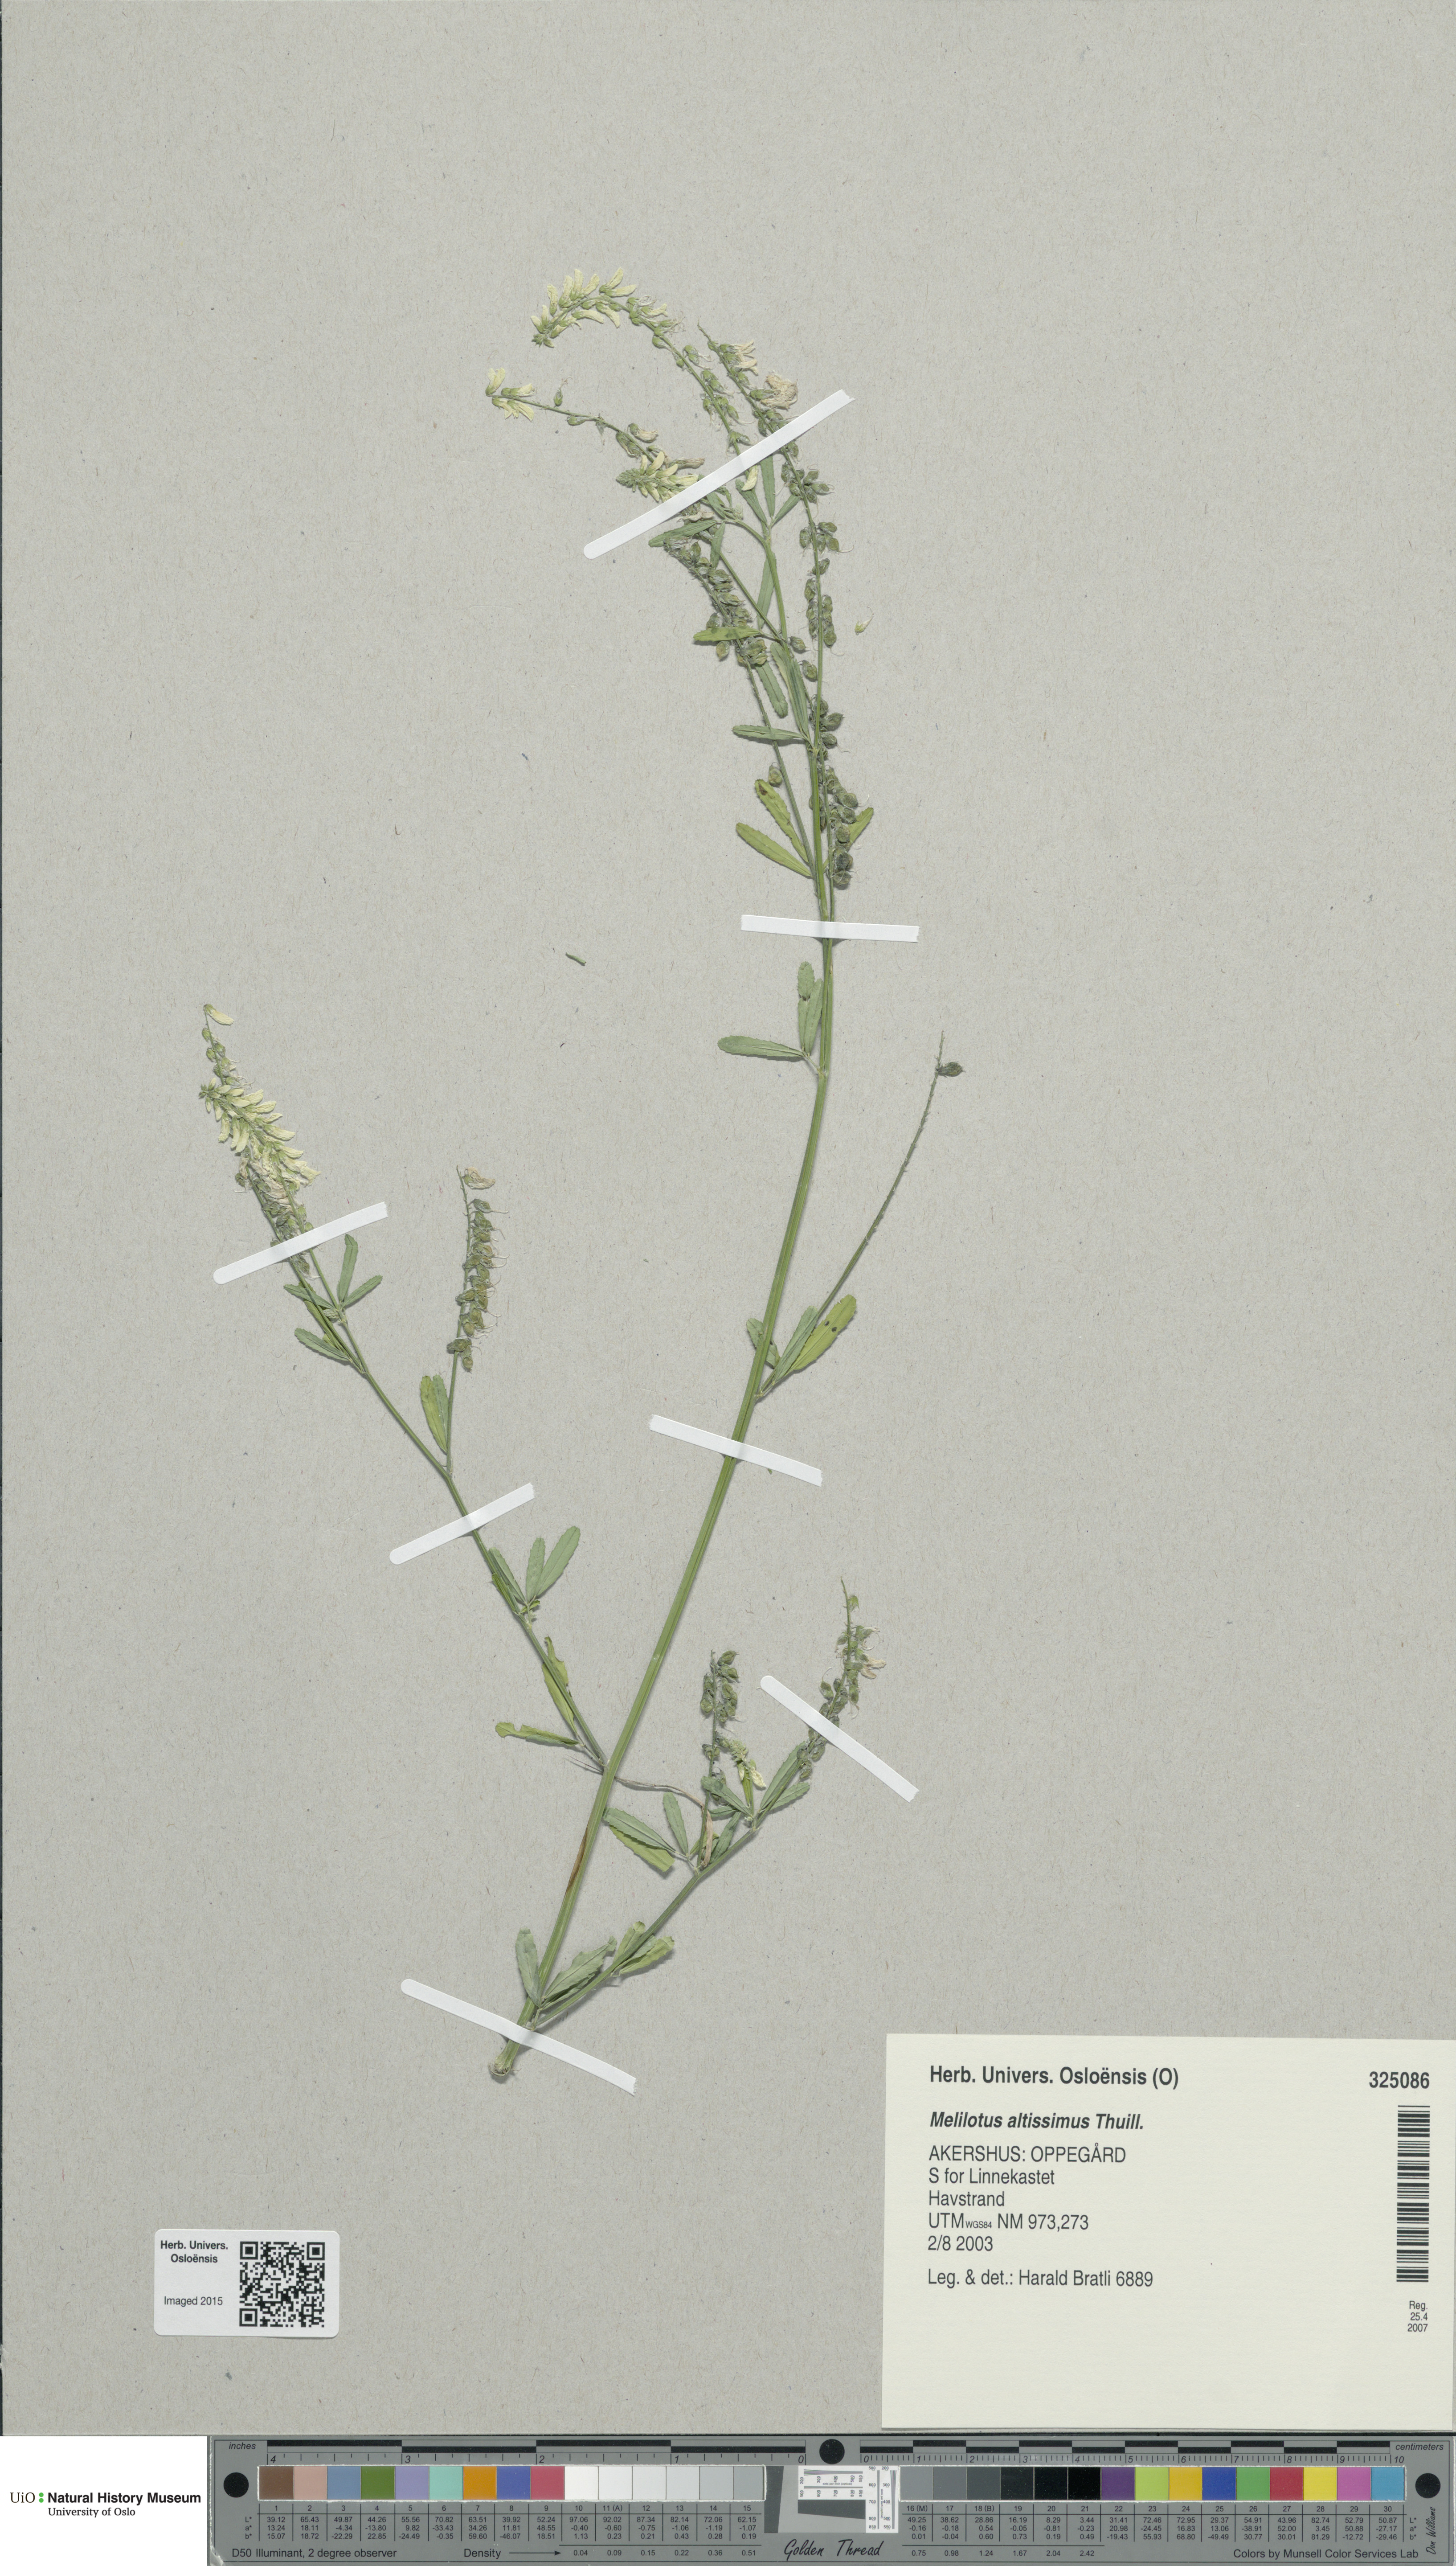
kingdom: Plantae
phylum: Tracheophyta
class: Magnoliopsida
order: Fabales
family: Fabaceae
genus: Melilotus
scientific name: Melilotus altissimus
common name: Tall melilot
